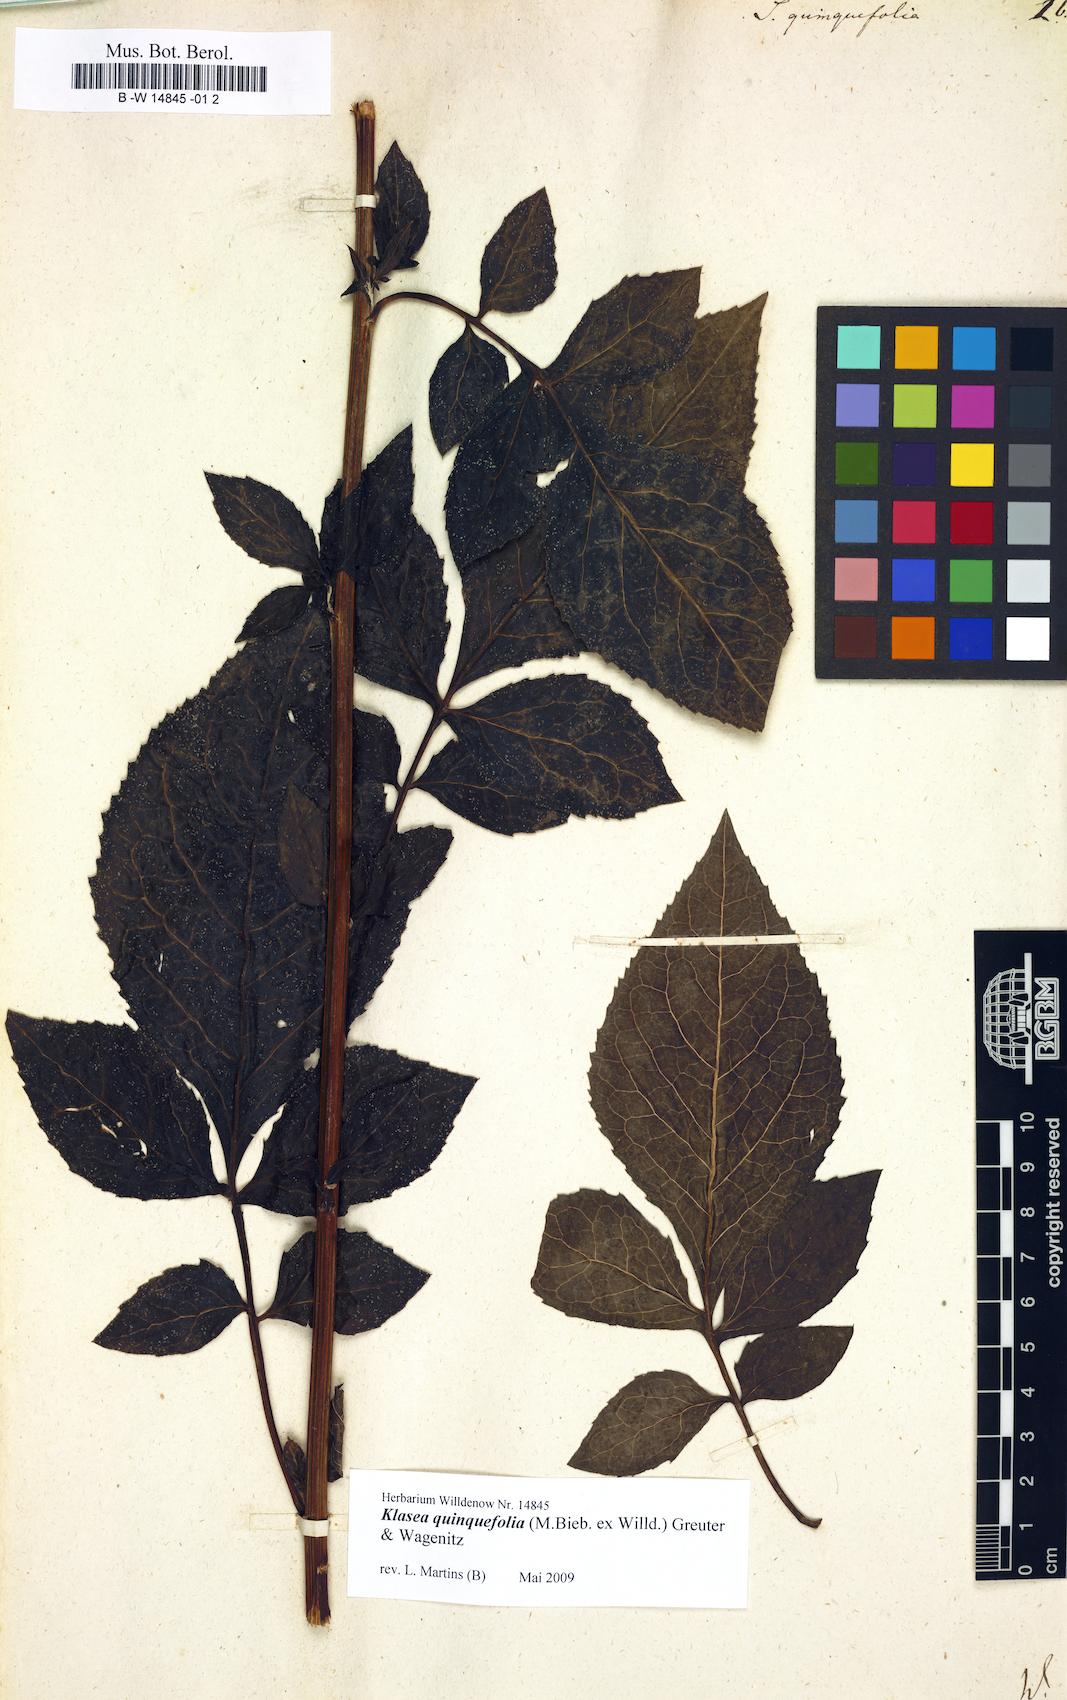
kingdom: Plantae
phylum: Tracheophyta
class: Magnoliopsida
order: Asterales
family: Asteraceae
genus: Klasea
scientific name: Klasea quinquefolia
